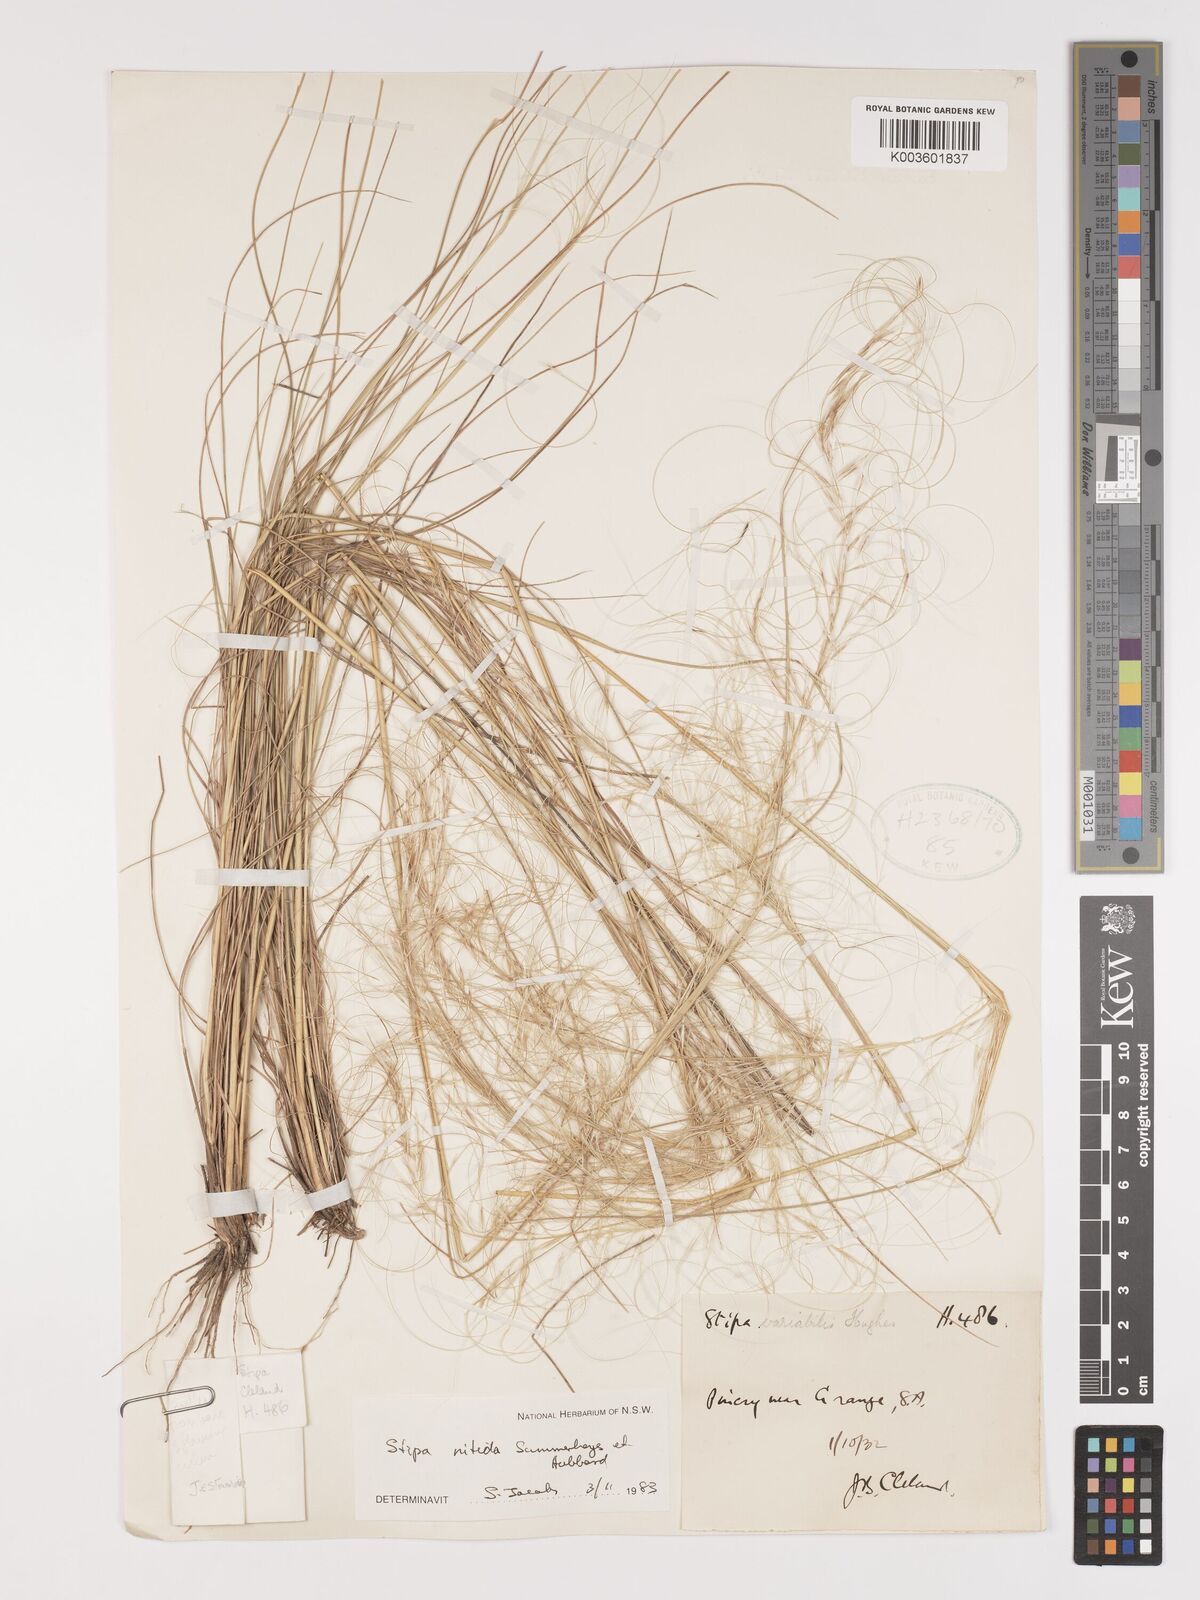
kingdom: Plantae
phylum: Tracheophyta
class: Liliopsida
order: Poales
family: Poaceae
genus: Austrostipa
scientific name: Austrostipa nitida
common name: Balcarra grass
